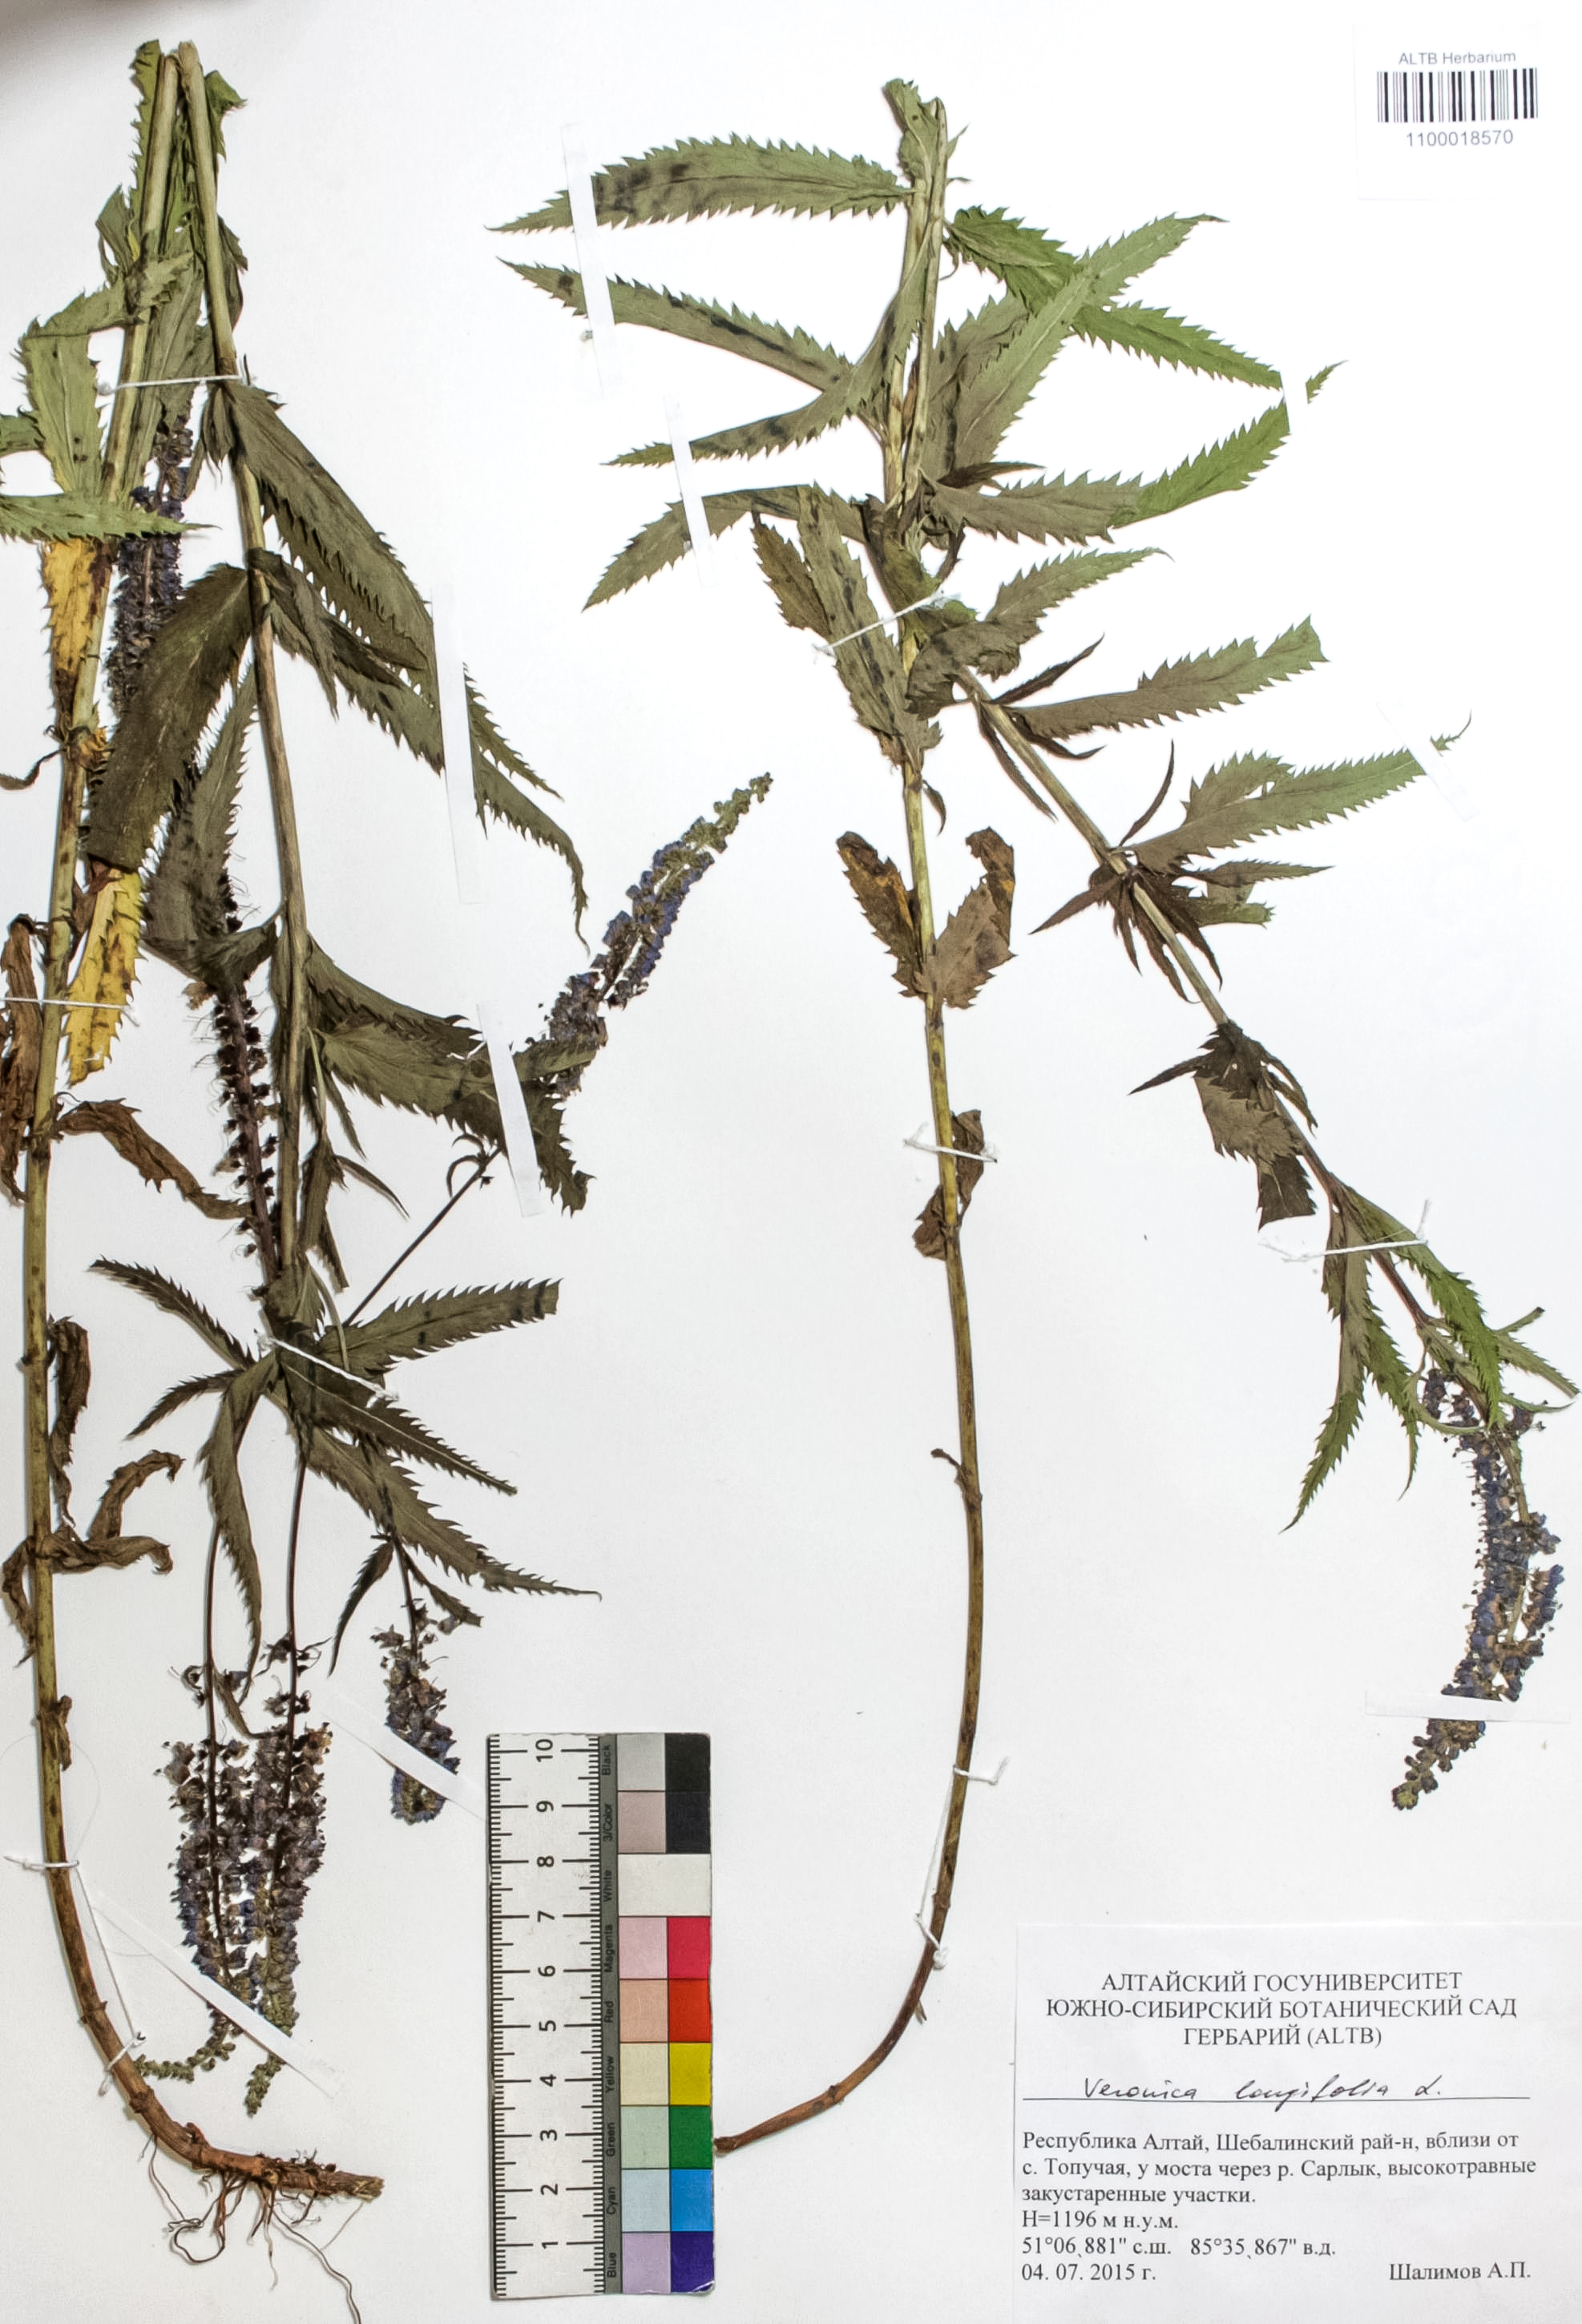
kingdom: Plantae
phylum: Tracheophyta
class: Magnoliopsida
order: Lamiales
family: Plantaginaceae
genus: Veronica
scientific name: Veronica longifolia
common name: Garden speedwell
